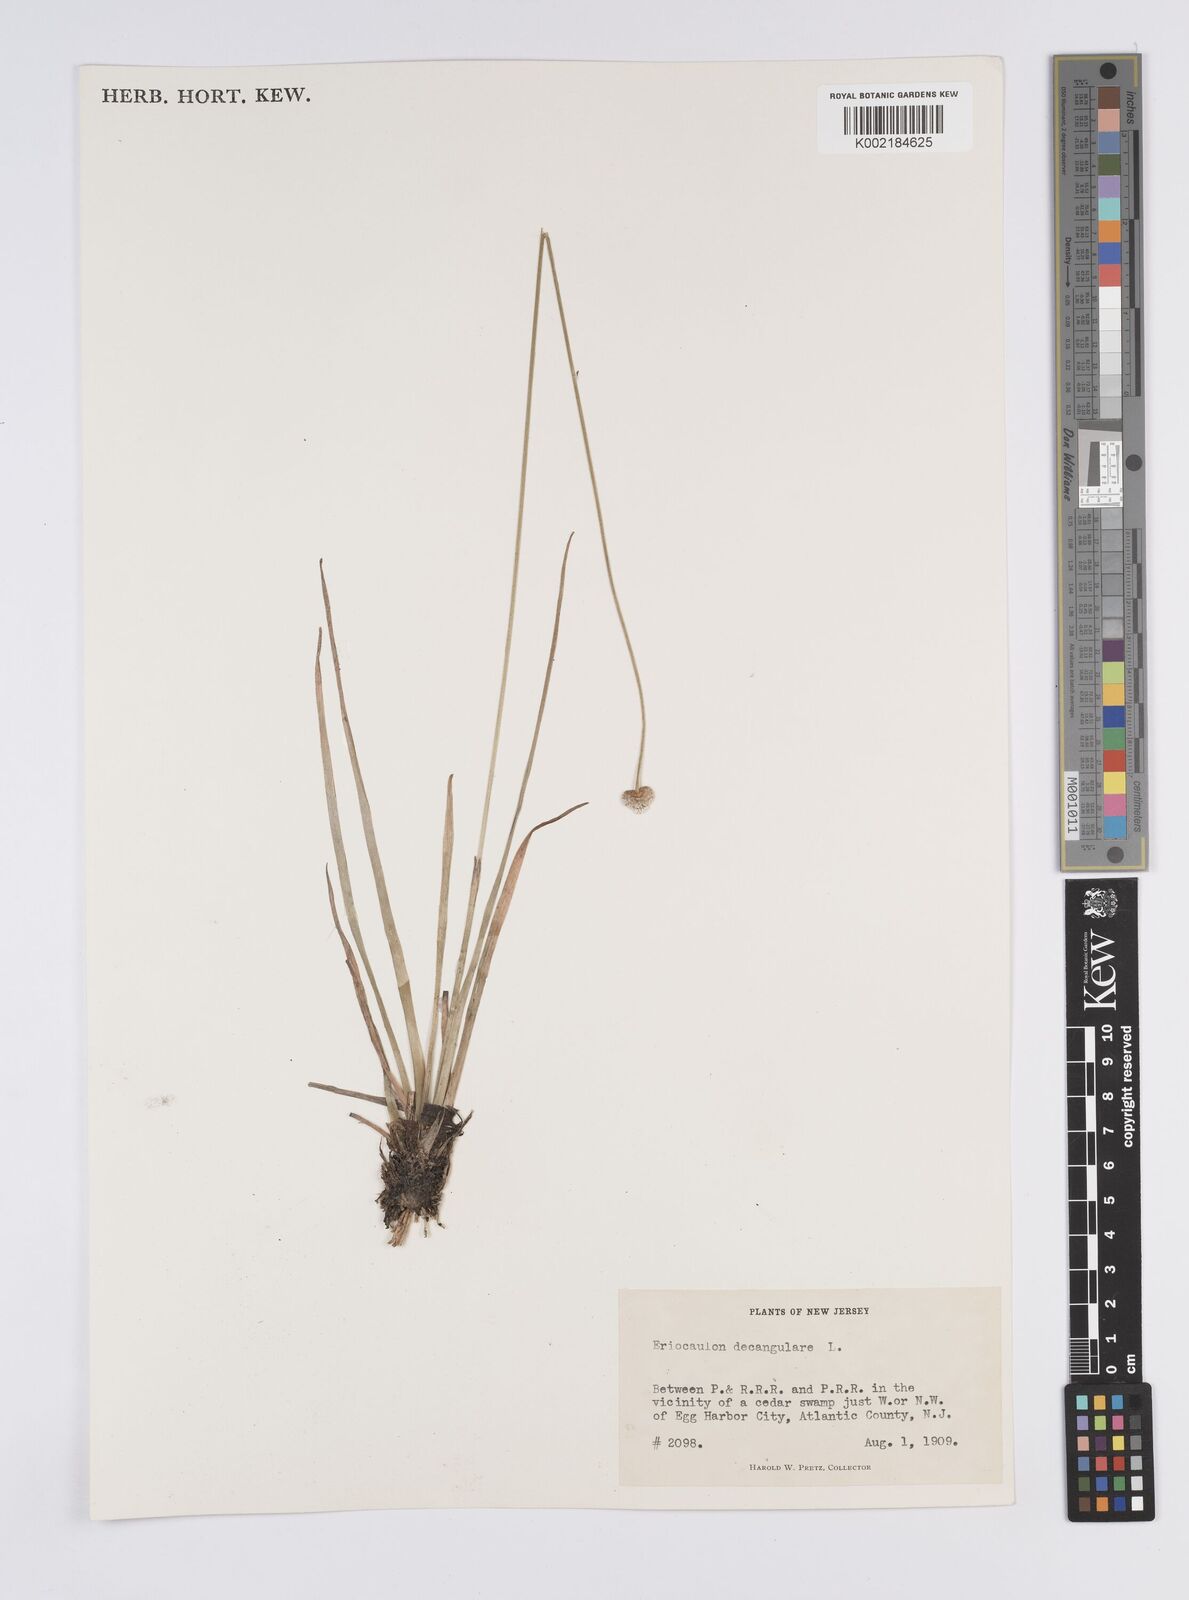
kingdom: Plantae
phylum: Tracheophyta
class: Liliopsida
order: Poales
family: Eriocaulaceae
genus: Eriocaulon
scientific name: Eriocaulon decangulare
